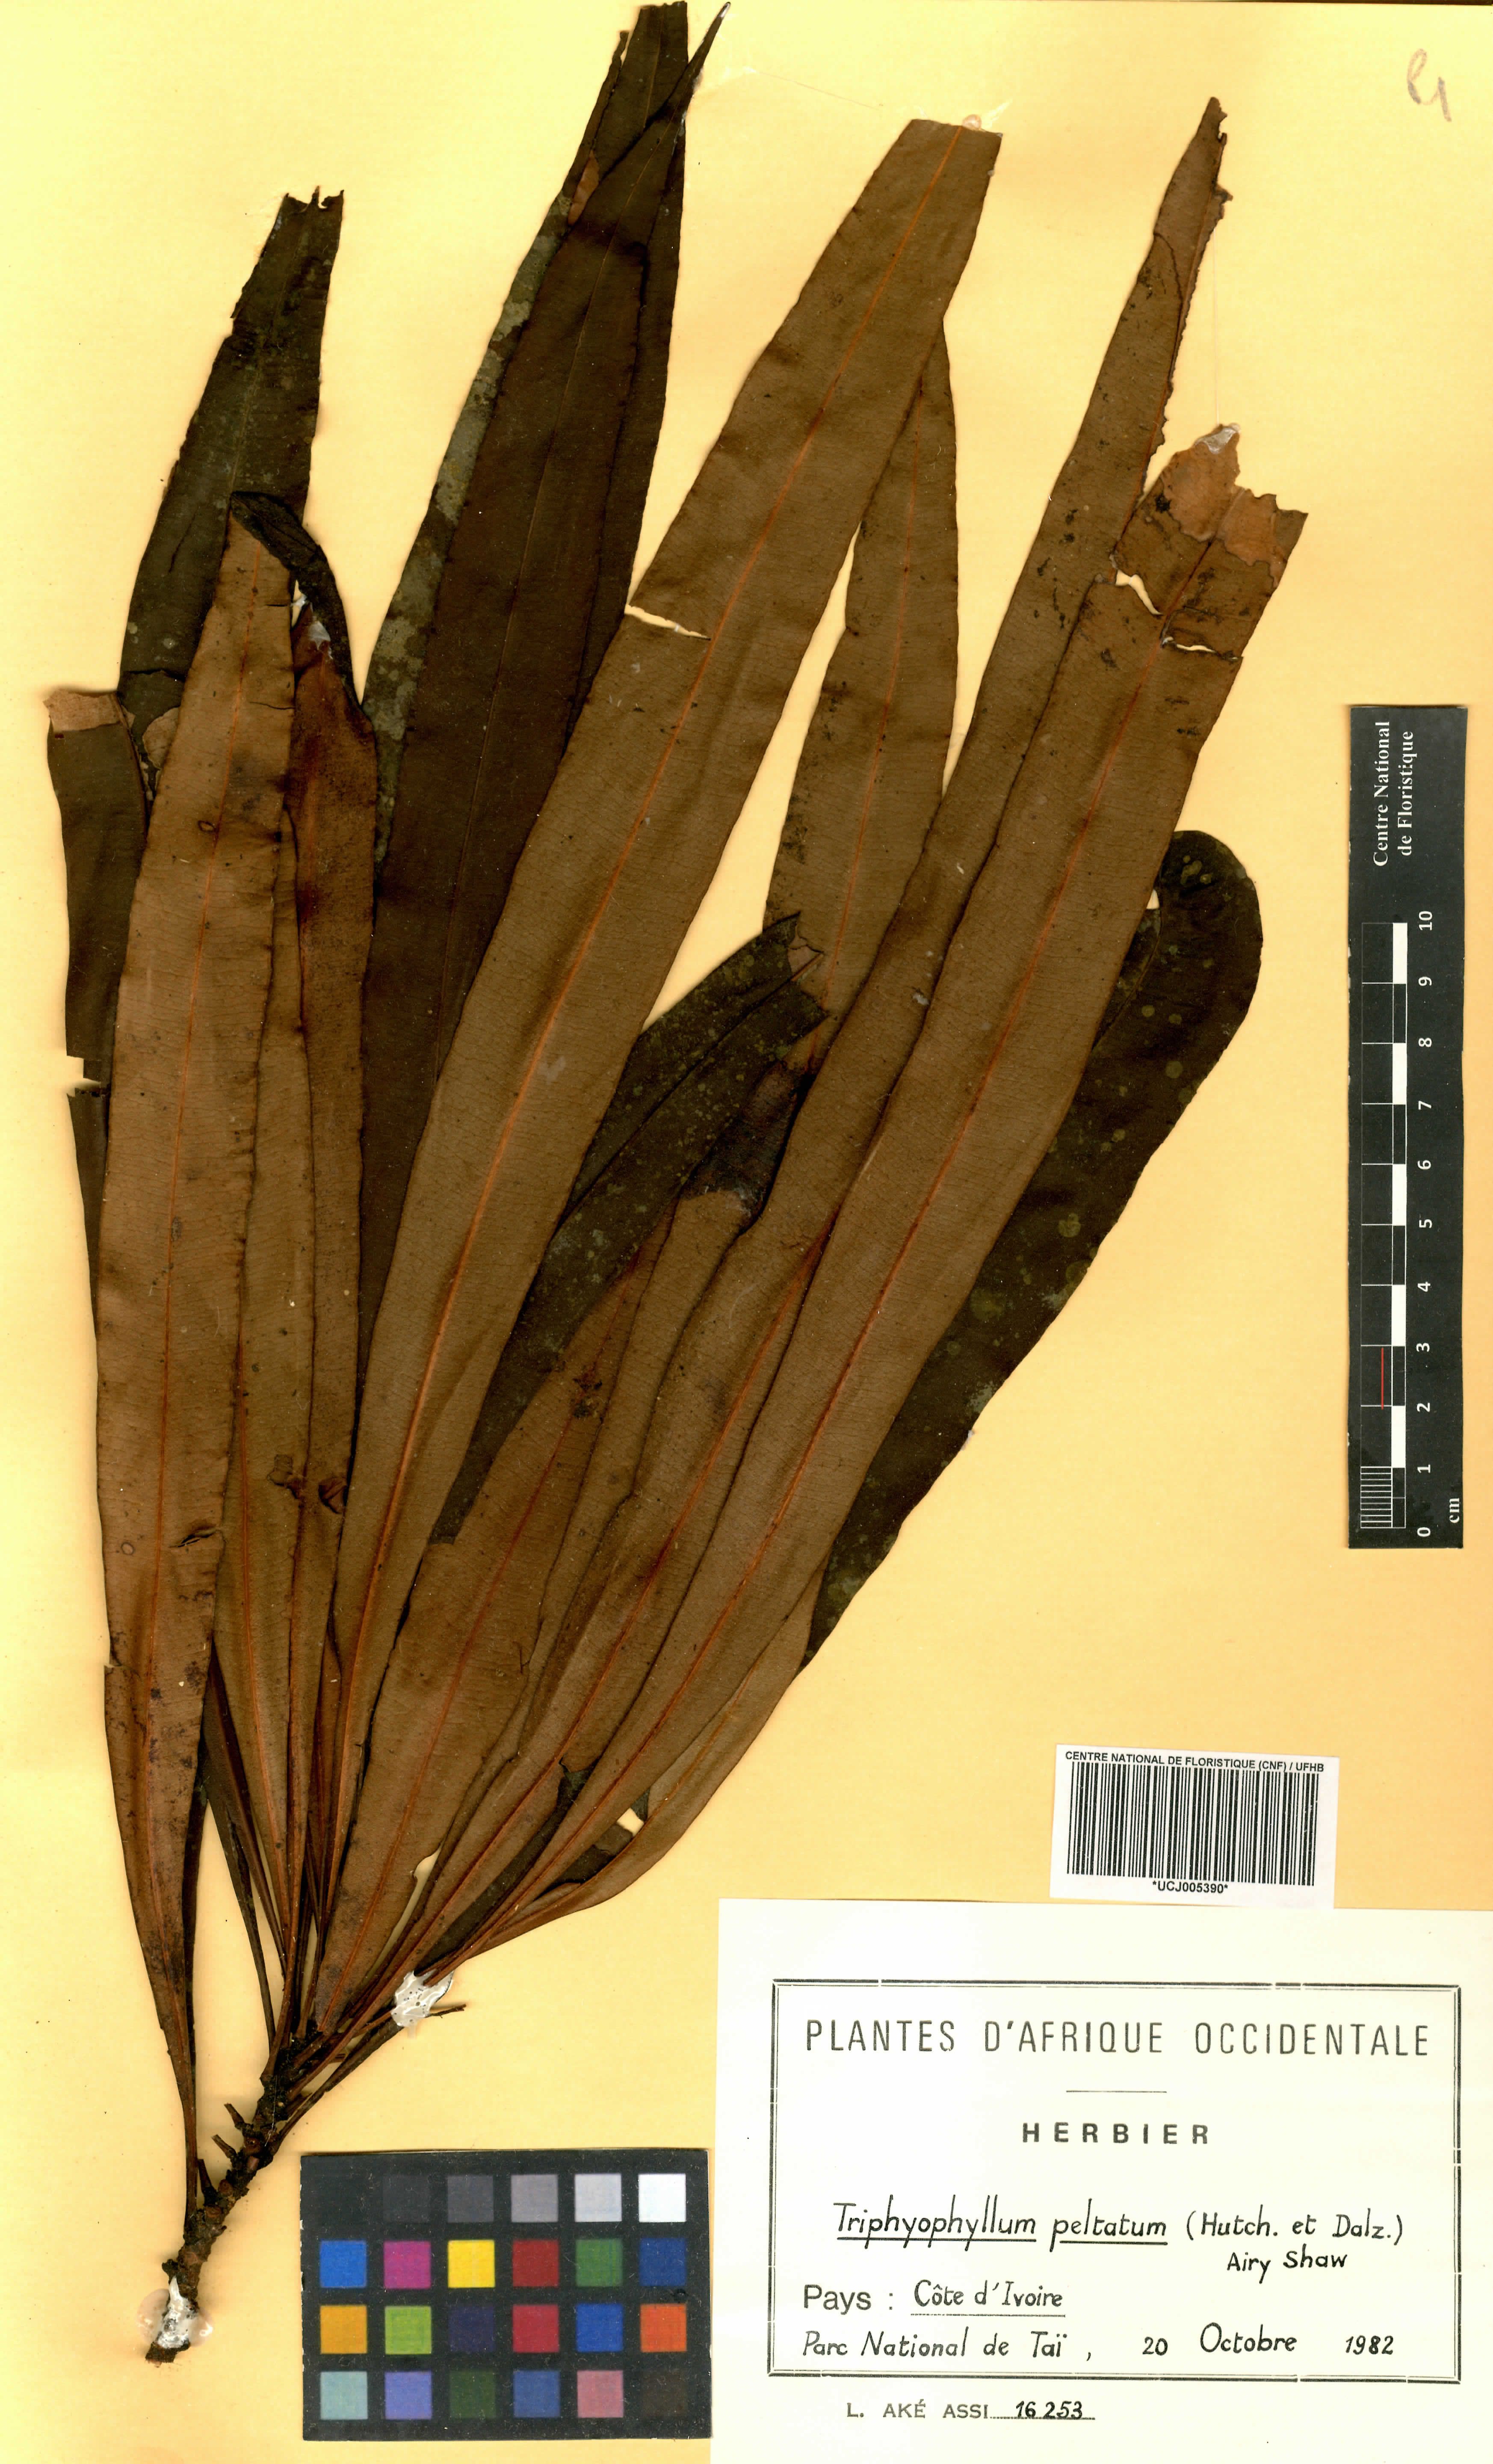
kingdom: Plantae
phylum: Tracheophyta
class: Magnoliopsida
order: Caryophyllales
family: Dioncophyllaceae
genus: Triphyophyllum
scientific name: Triphyophyllum peltatum
